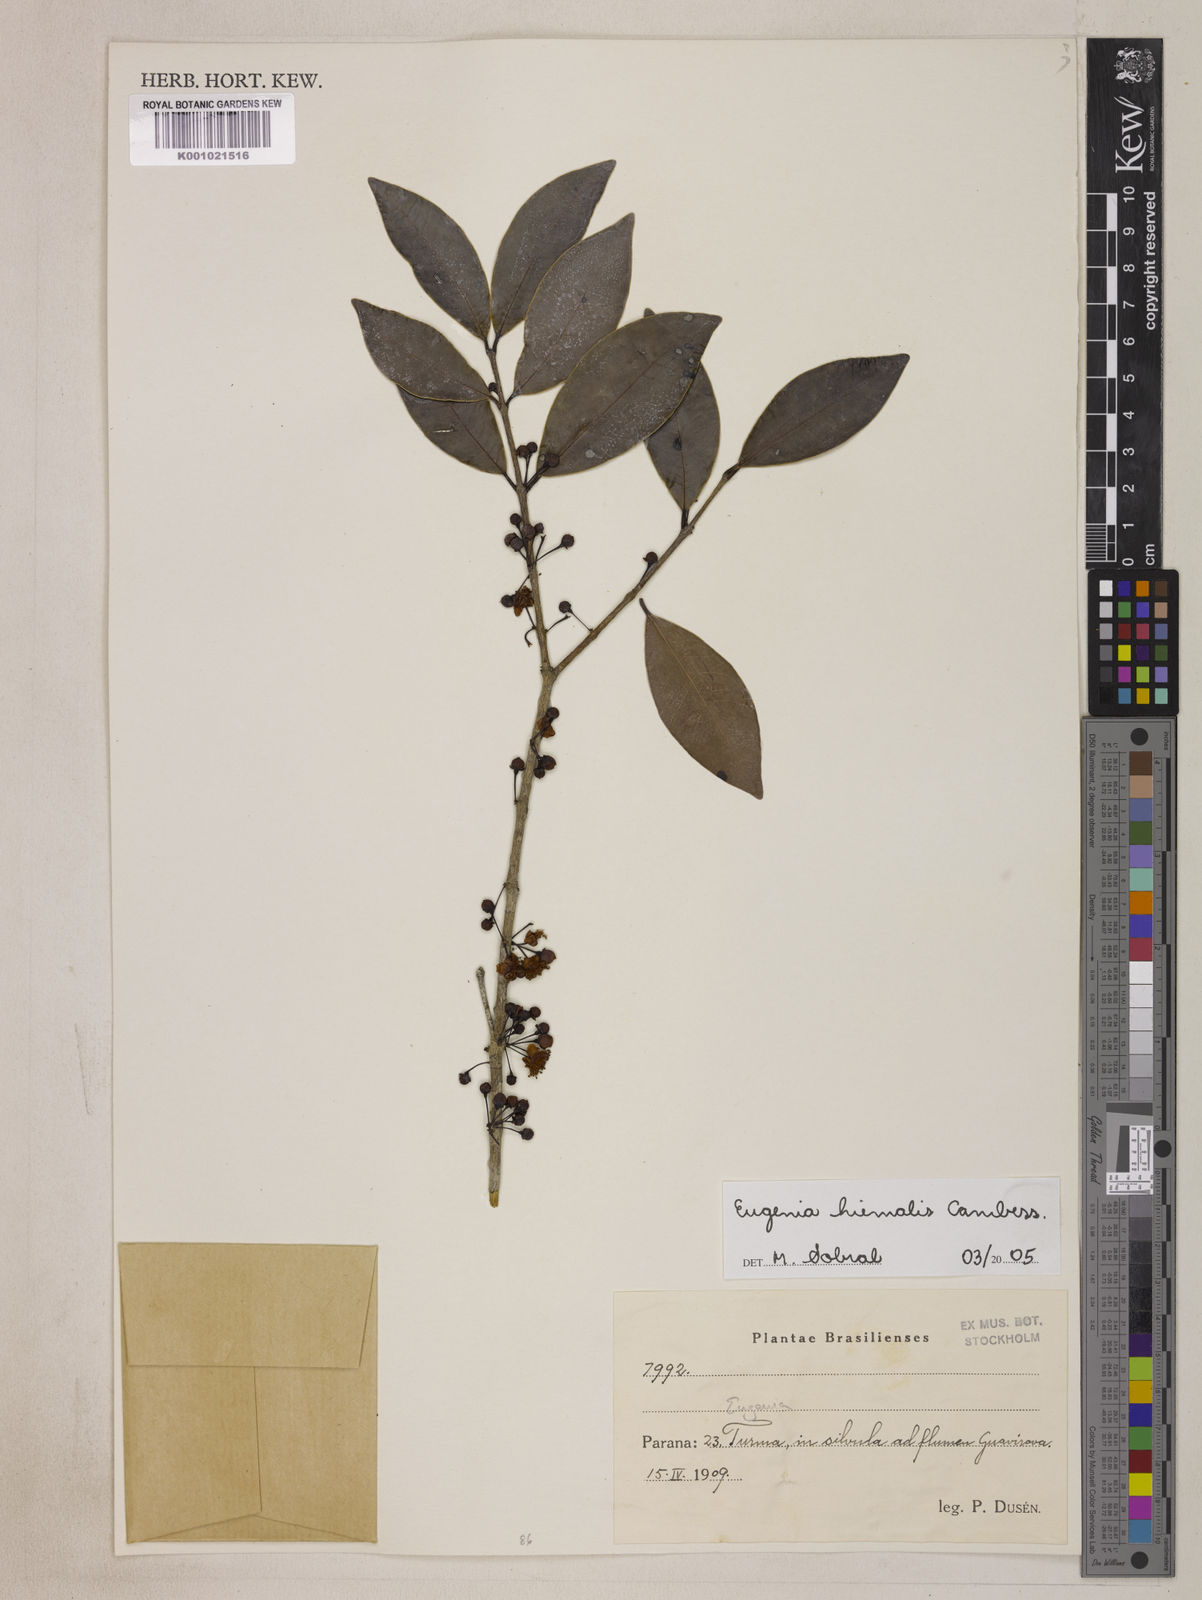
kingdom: Plantae
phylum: Tracheophyta
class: Magnoliopsida
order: Myrtales
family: Myrtaceae
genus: Eugenia
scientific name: Eugenia hiemalis
